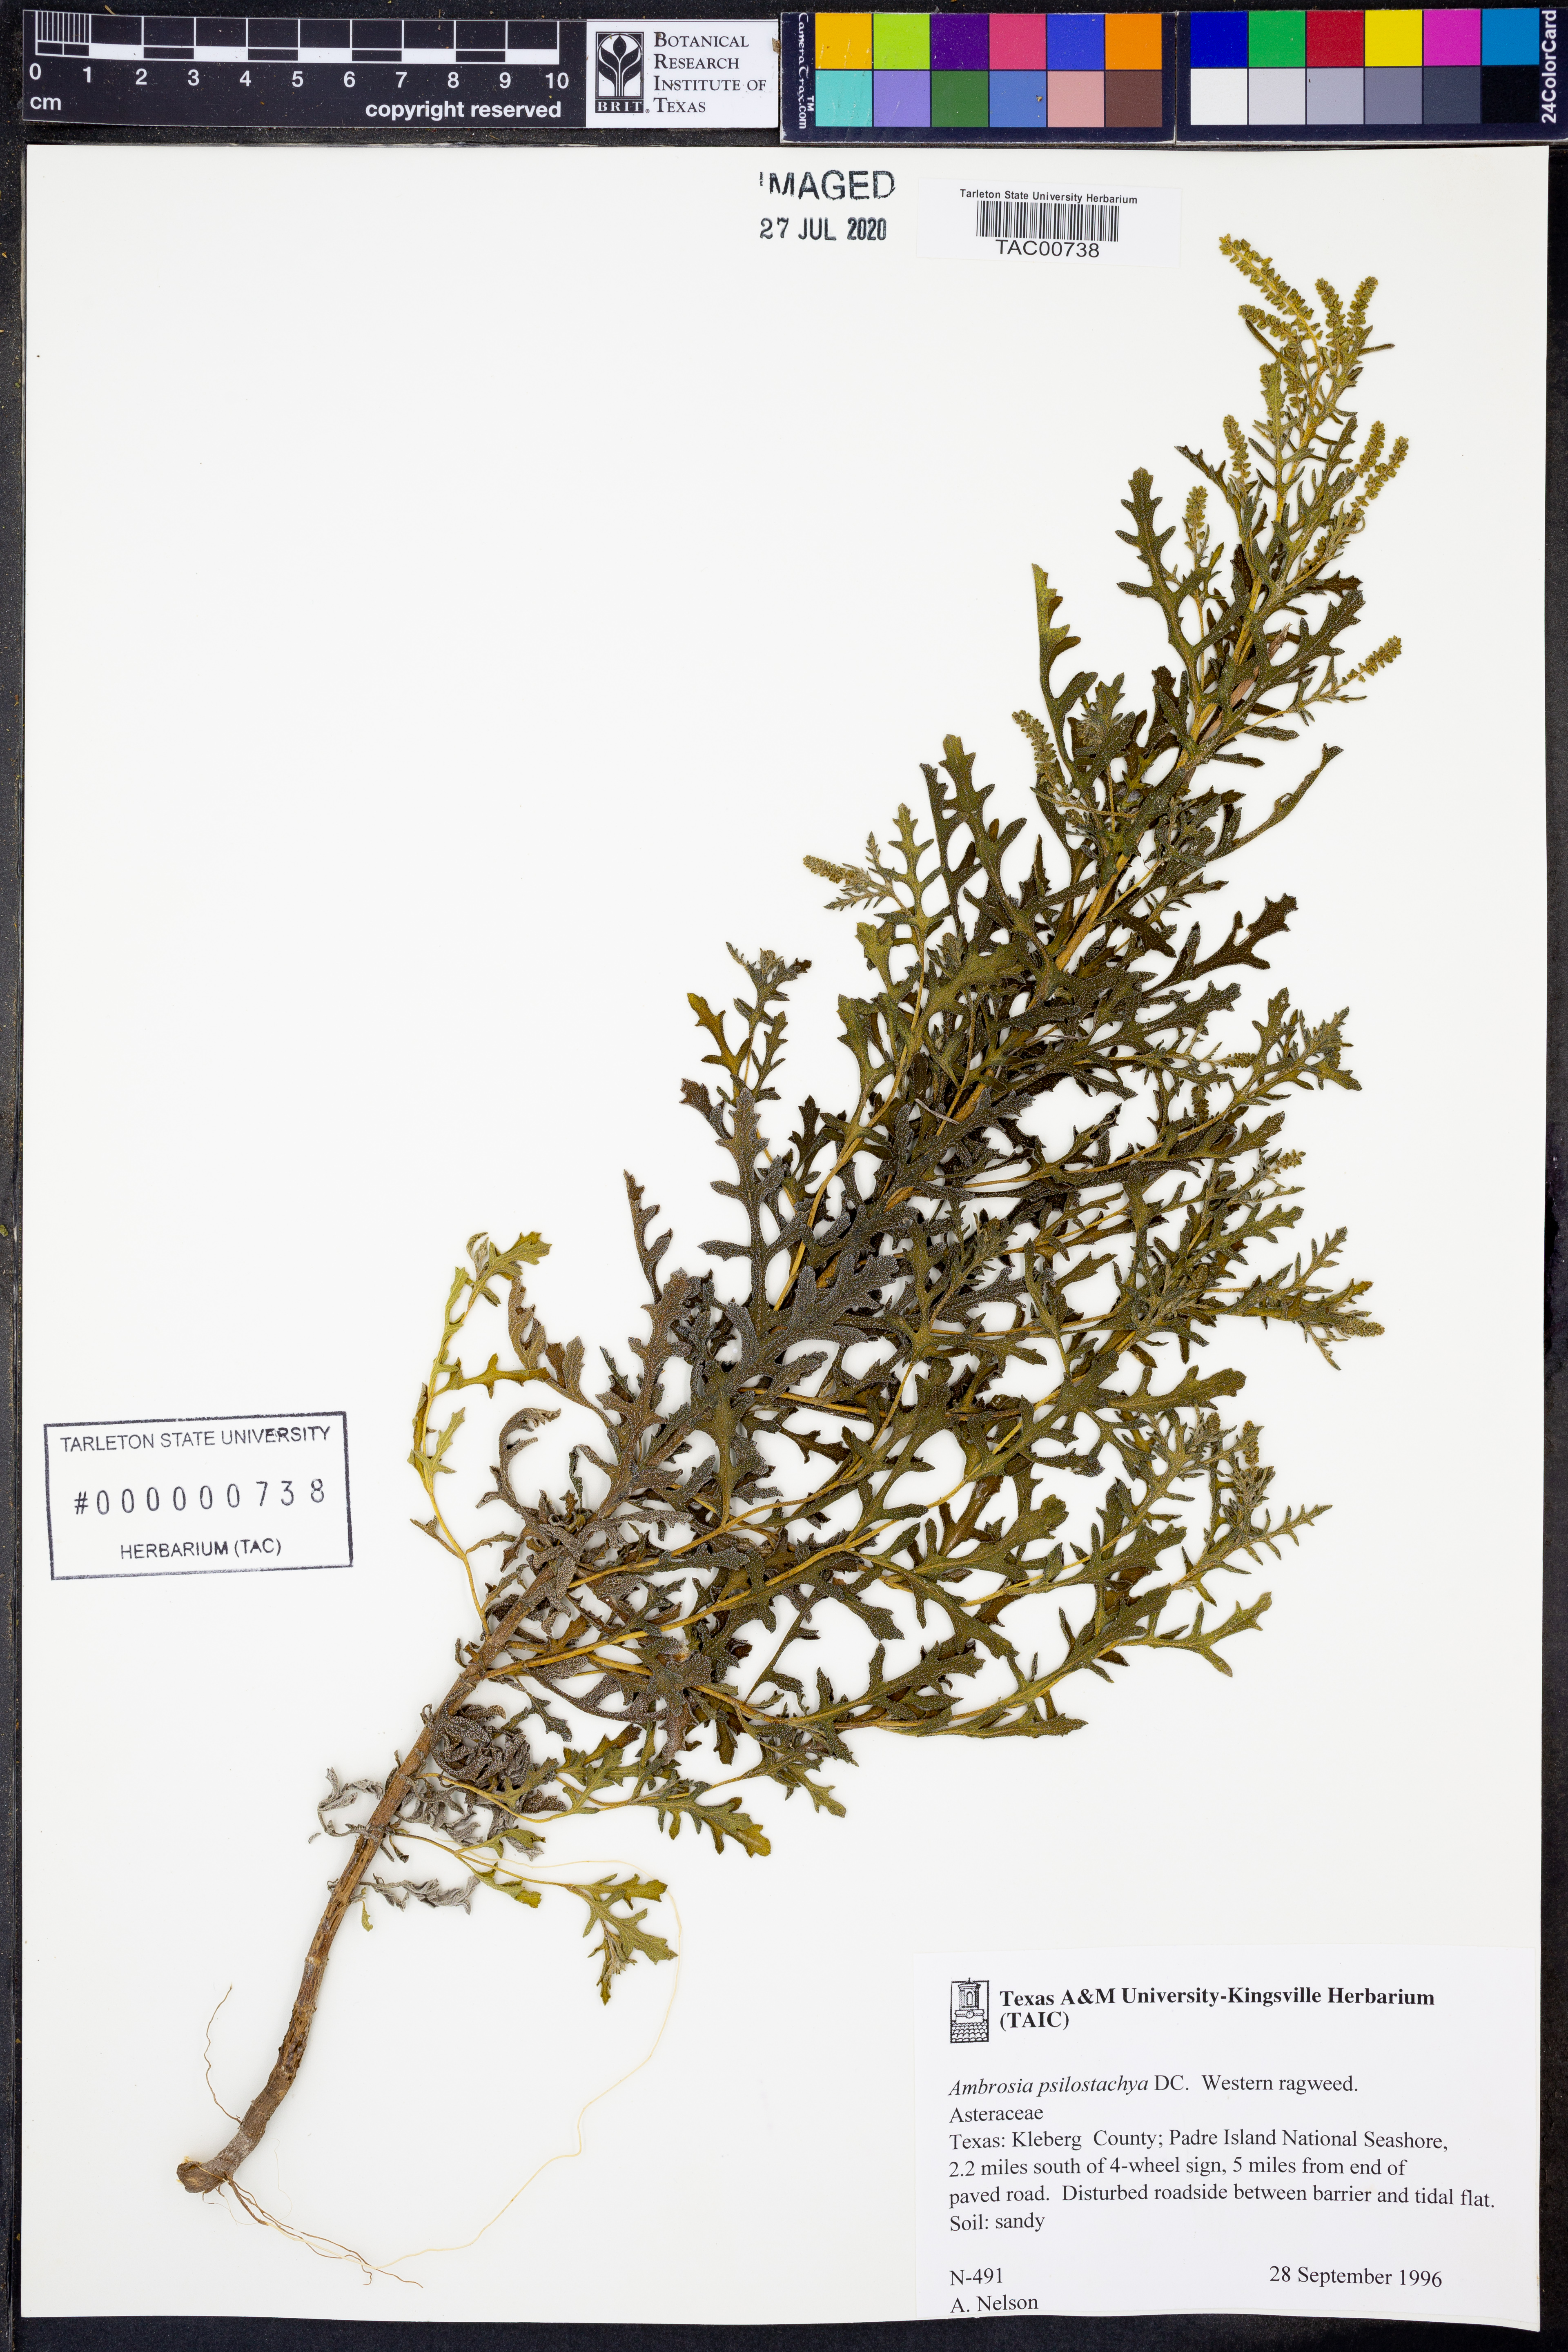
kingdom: Plantae
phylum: Tracheophyta
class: Magnoliopsida
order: Asterales
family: Asteraceae
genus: Ambrosia
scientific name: Ambrosia psilostachya
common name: Perennial ragweed
